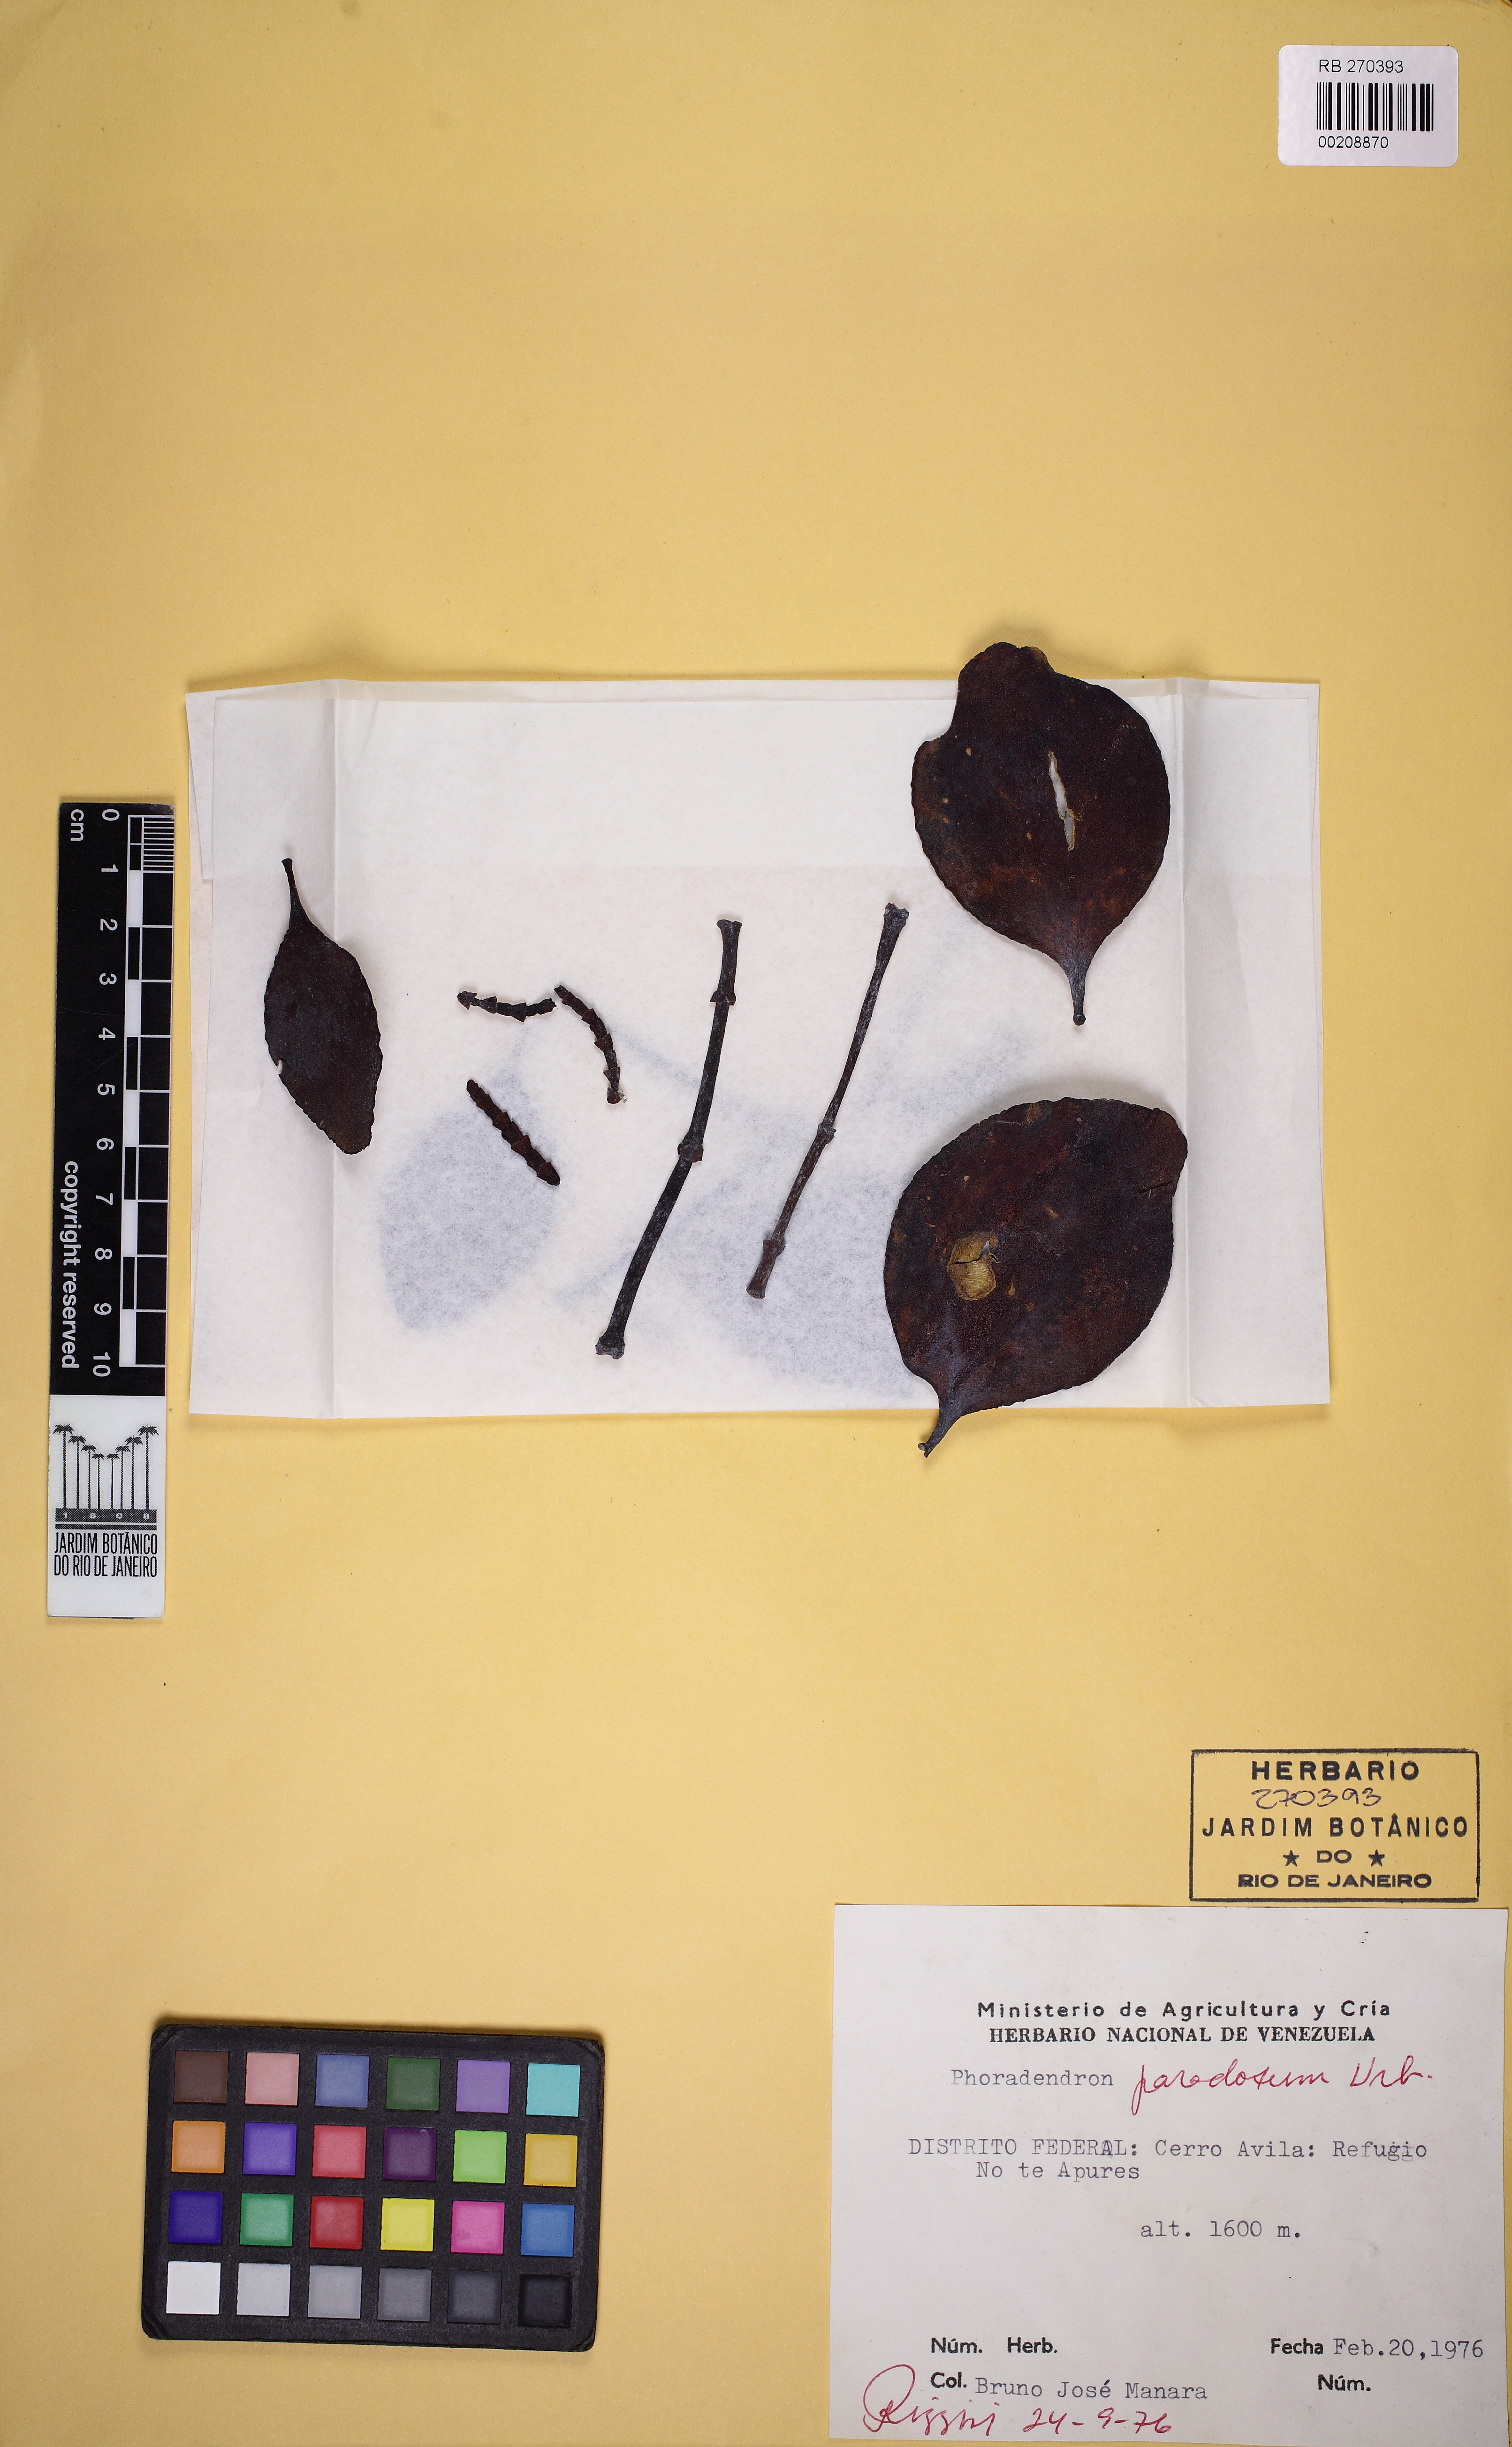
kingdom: Plantae
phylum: Tracheophyta
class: Magnoliopsida
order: Santalales
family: Viscaceae
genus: Phoradendron
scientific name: Phoradendron paradoxum
